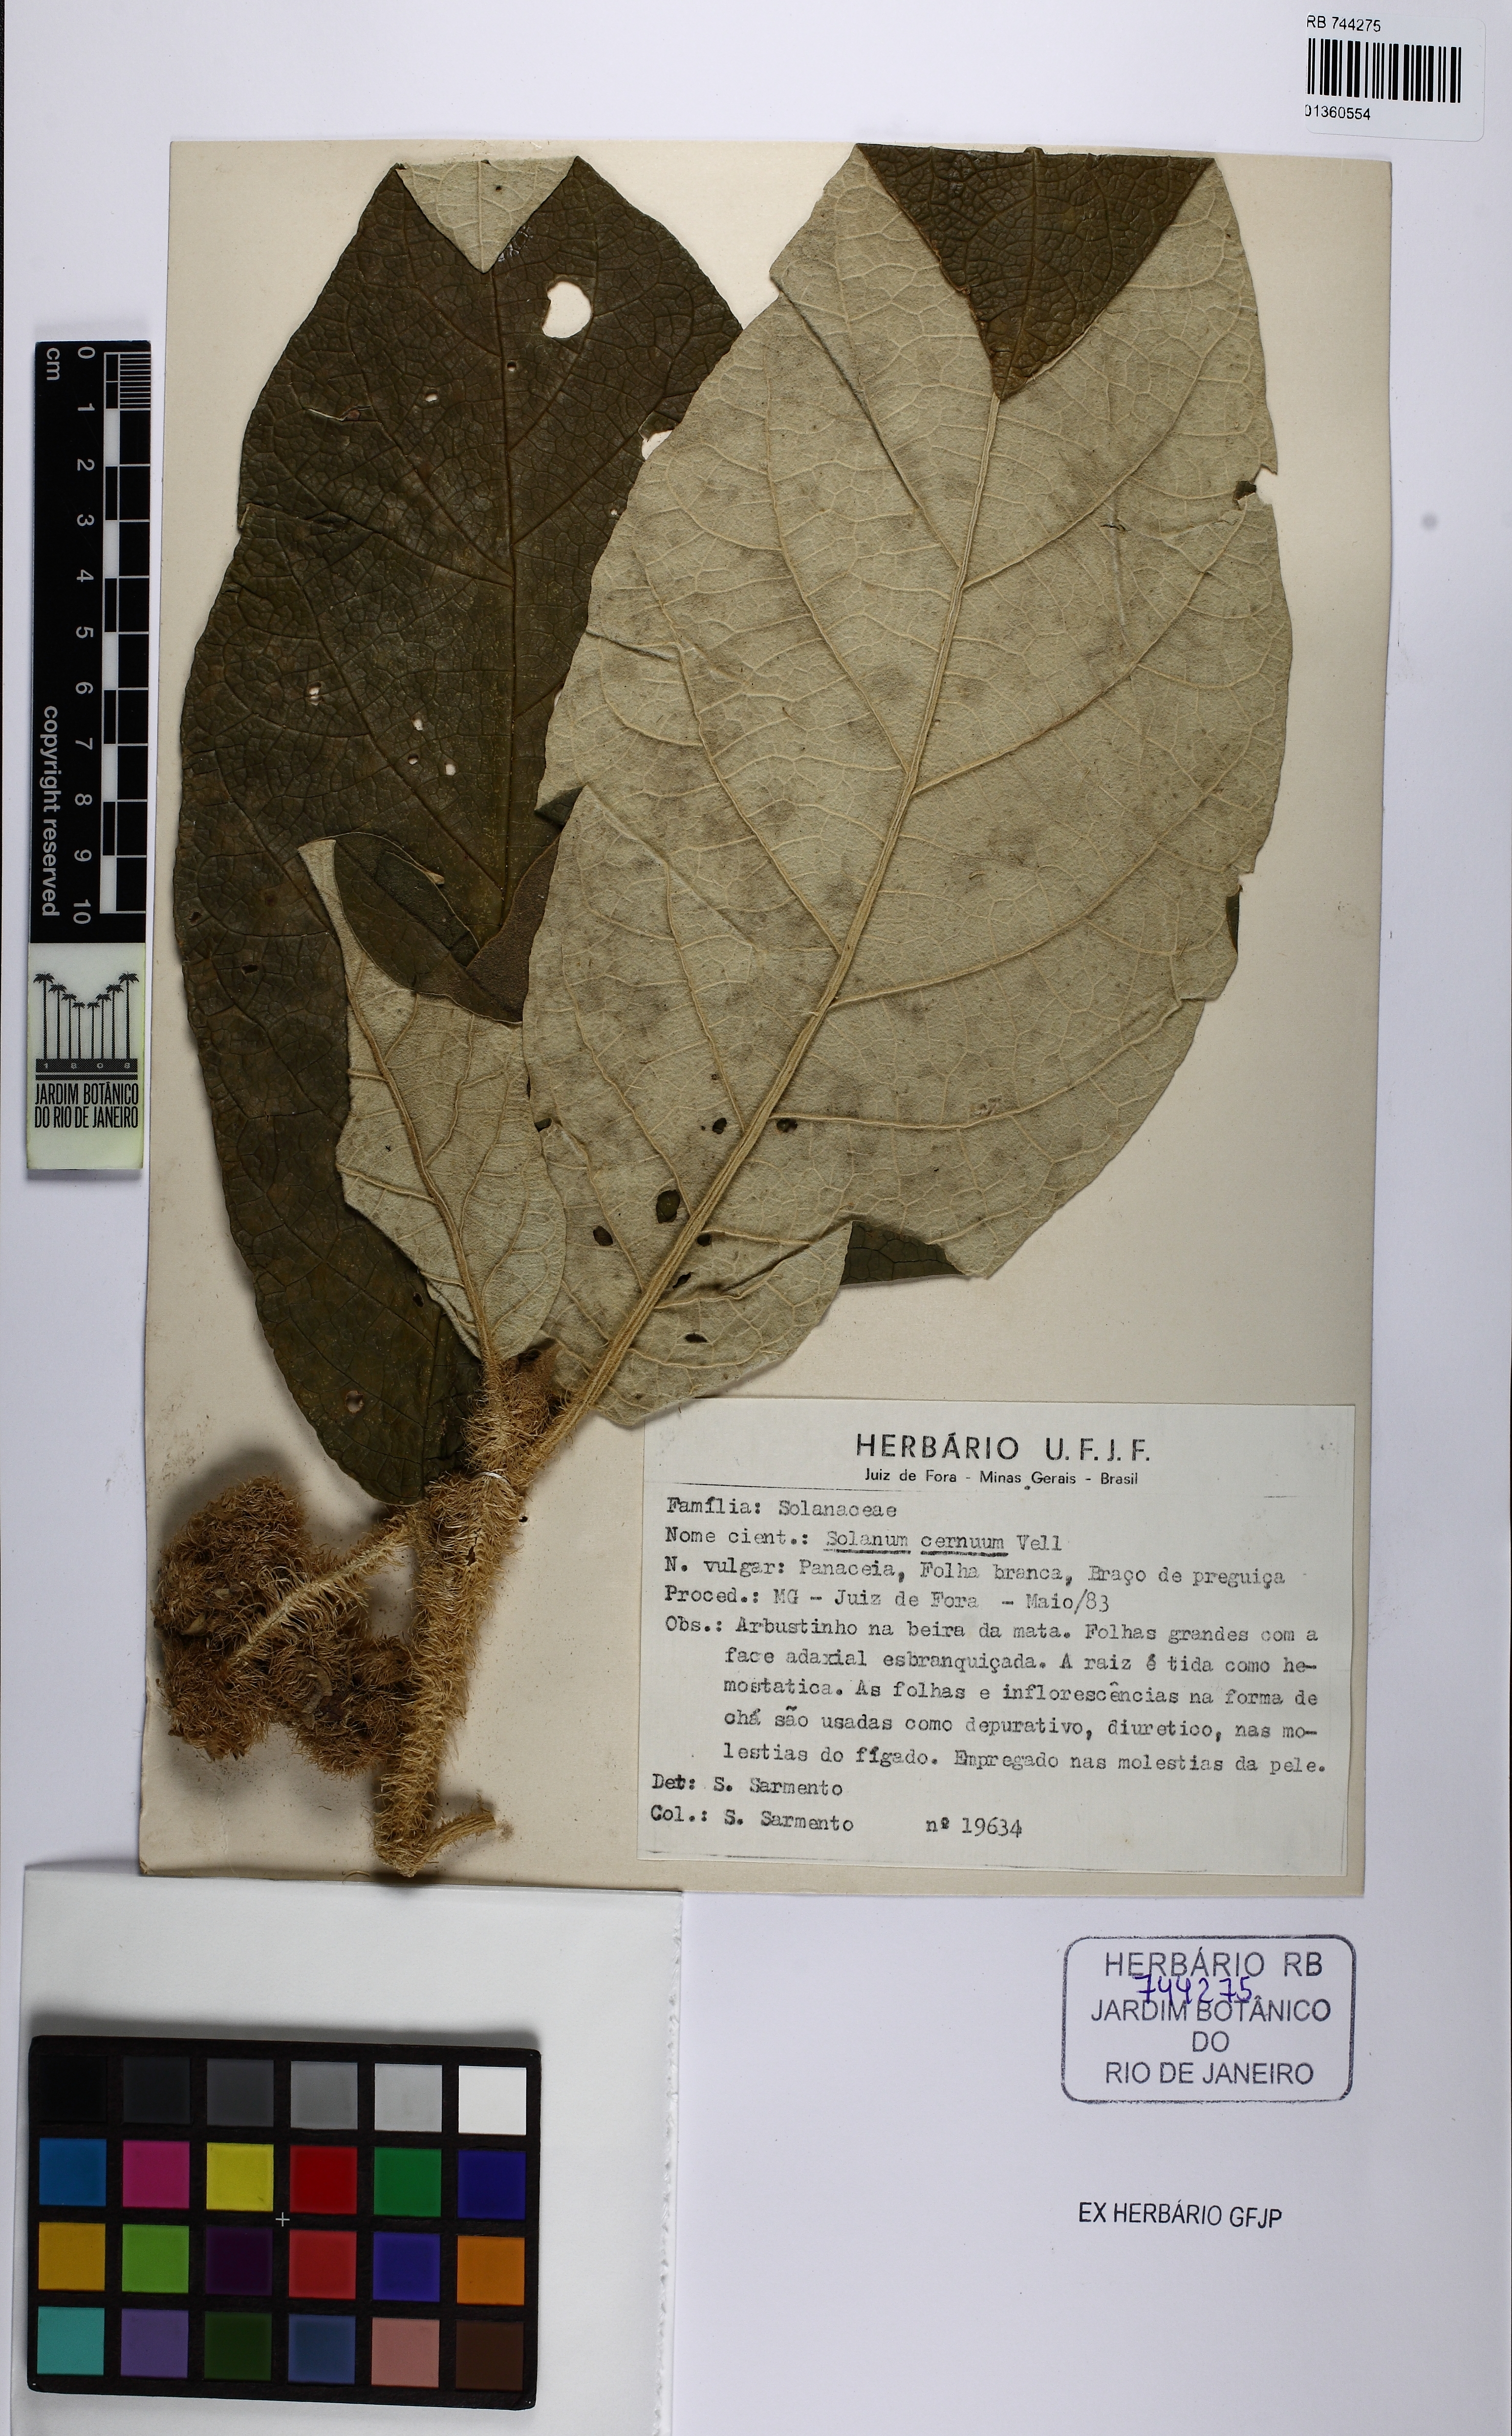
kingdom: Plantae
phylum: Tracheophyta
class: Magnoliopsida
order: Solanales
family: Solanaceae
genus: Solanum
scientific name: Solanum cernuum
